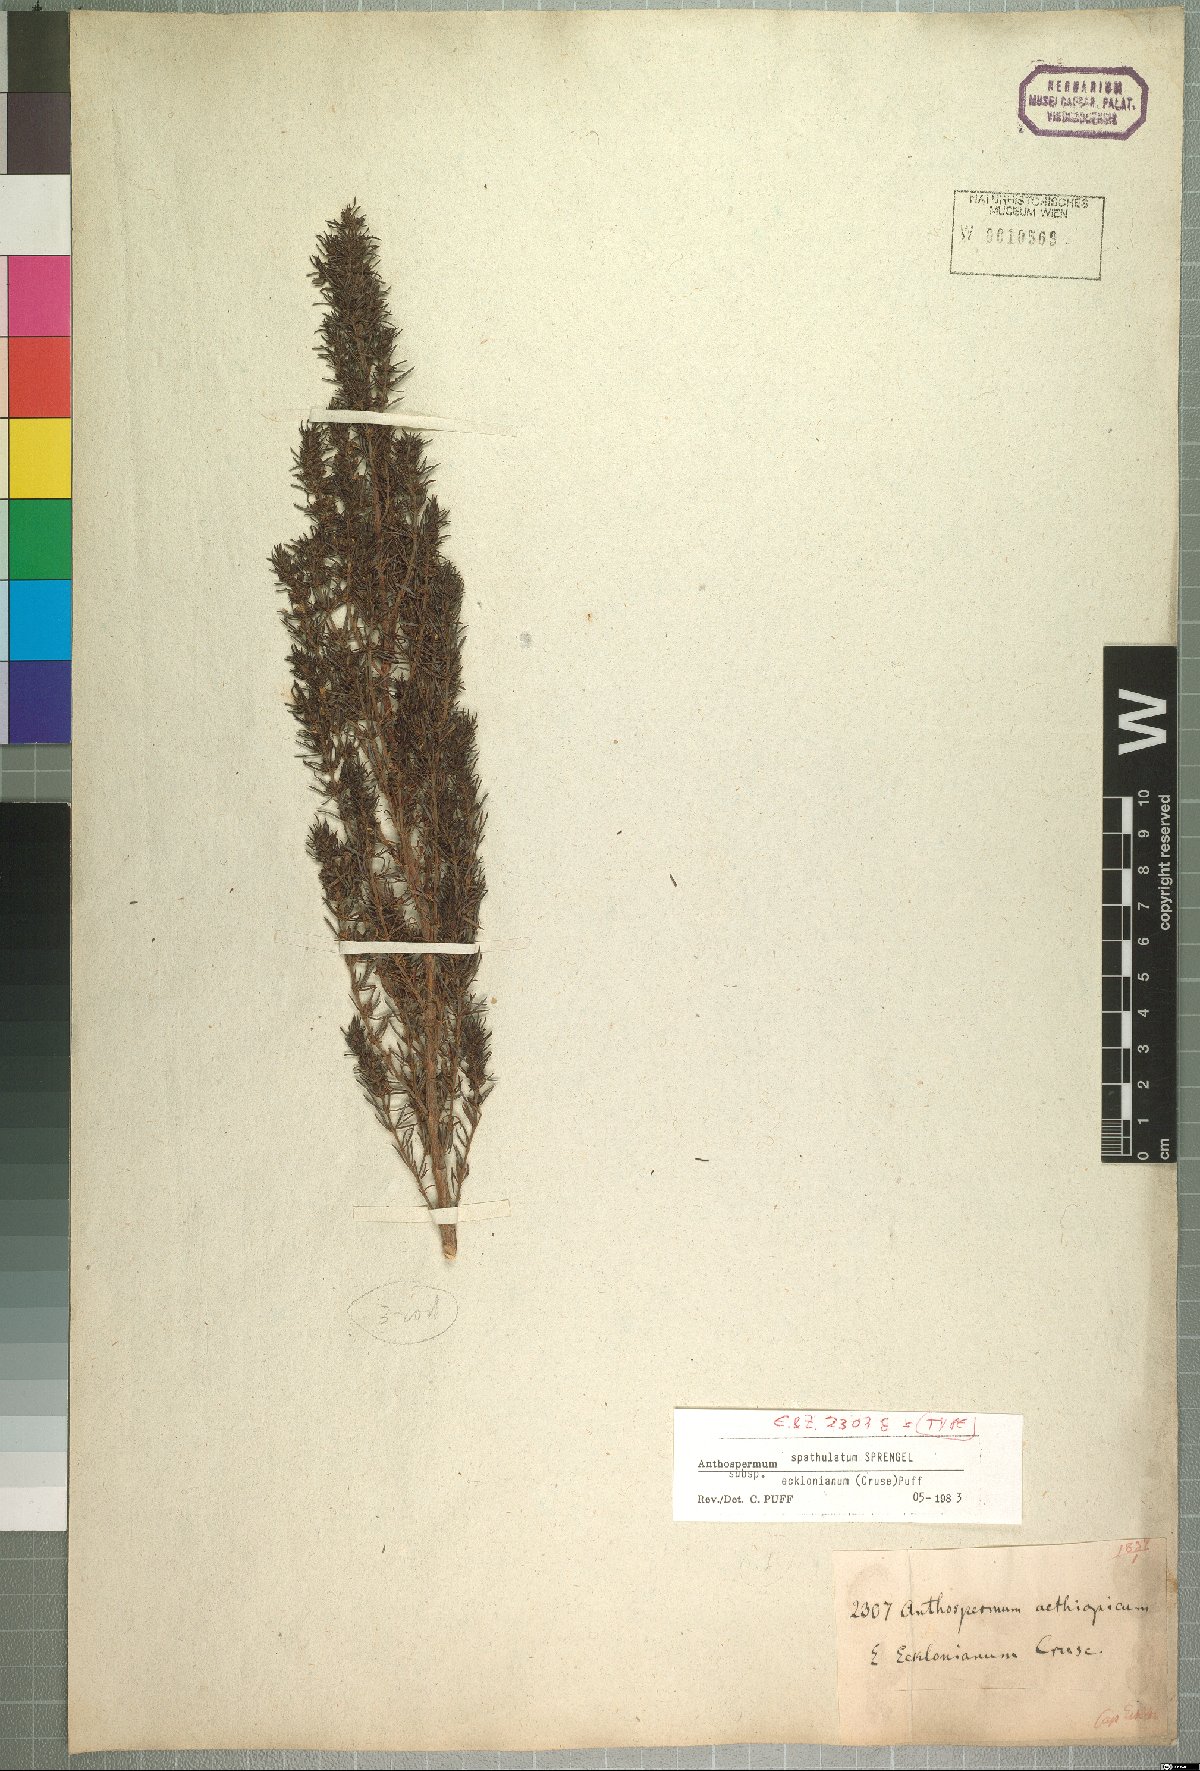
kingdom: Plantae
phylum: Tracheophyta
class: Magnoliopsida
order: Gentianales
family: Rubiaceae
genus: Anthospermum
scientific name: Anthospermum spathulatum
